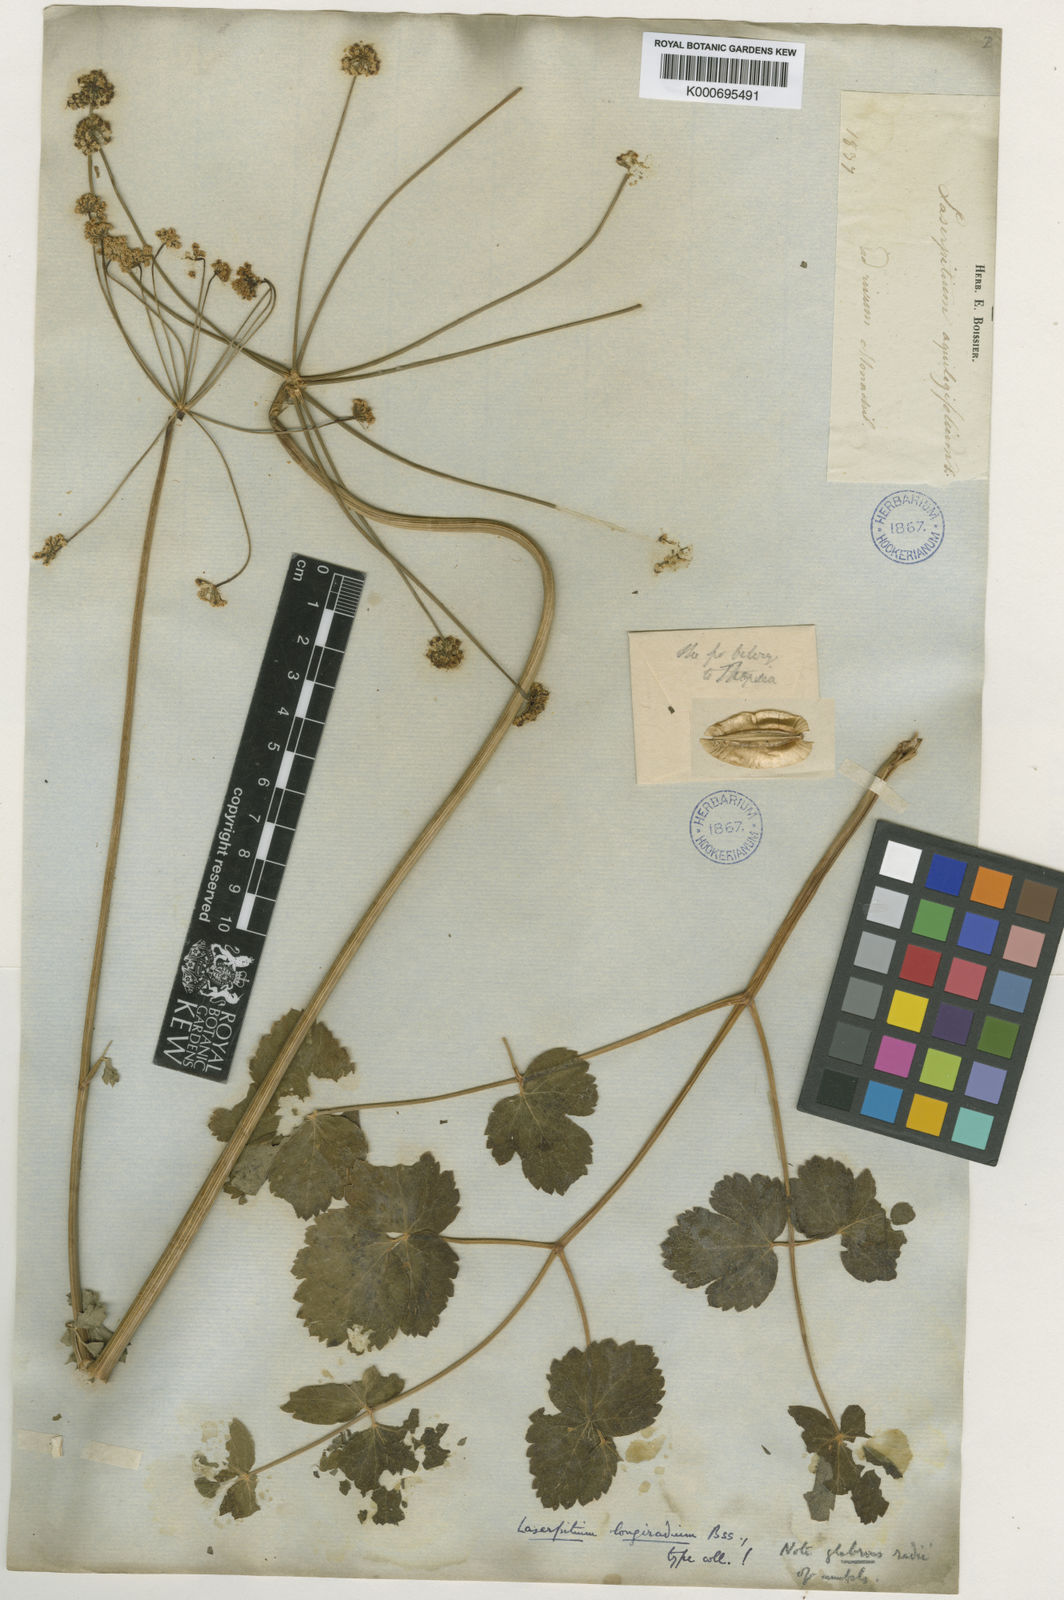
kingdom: Plantae
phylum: Tracheophyta
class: Magnoliopsida
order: Apiales
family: Apiaceae
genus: Laserpitium
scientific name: Laserpitium longiradium
